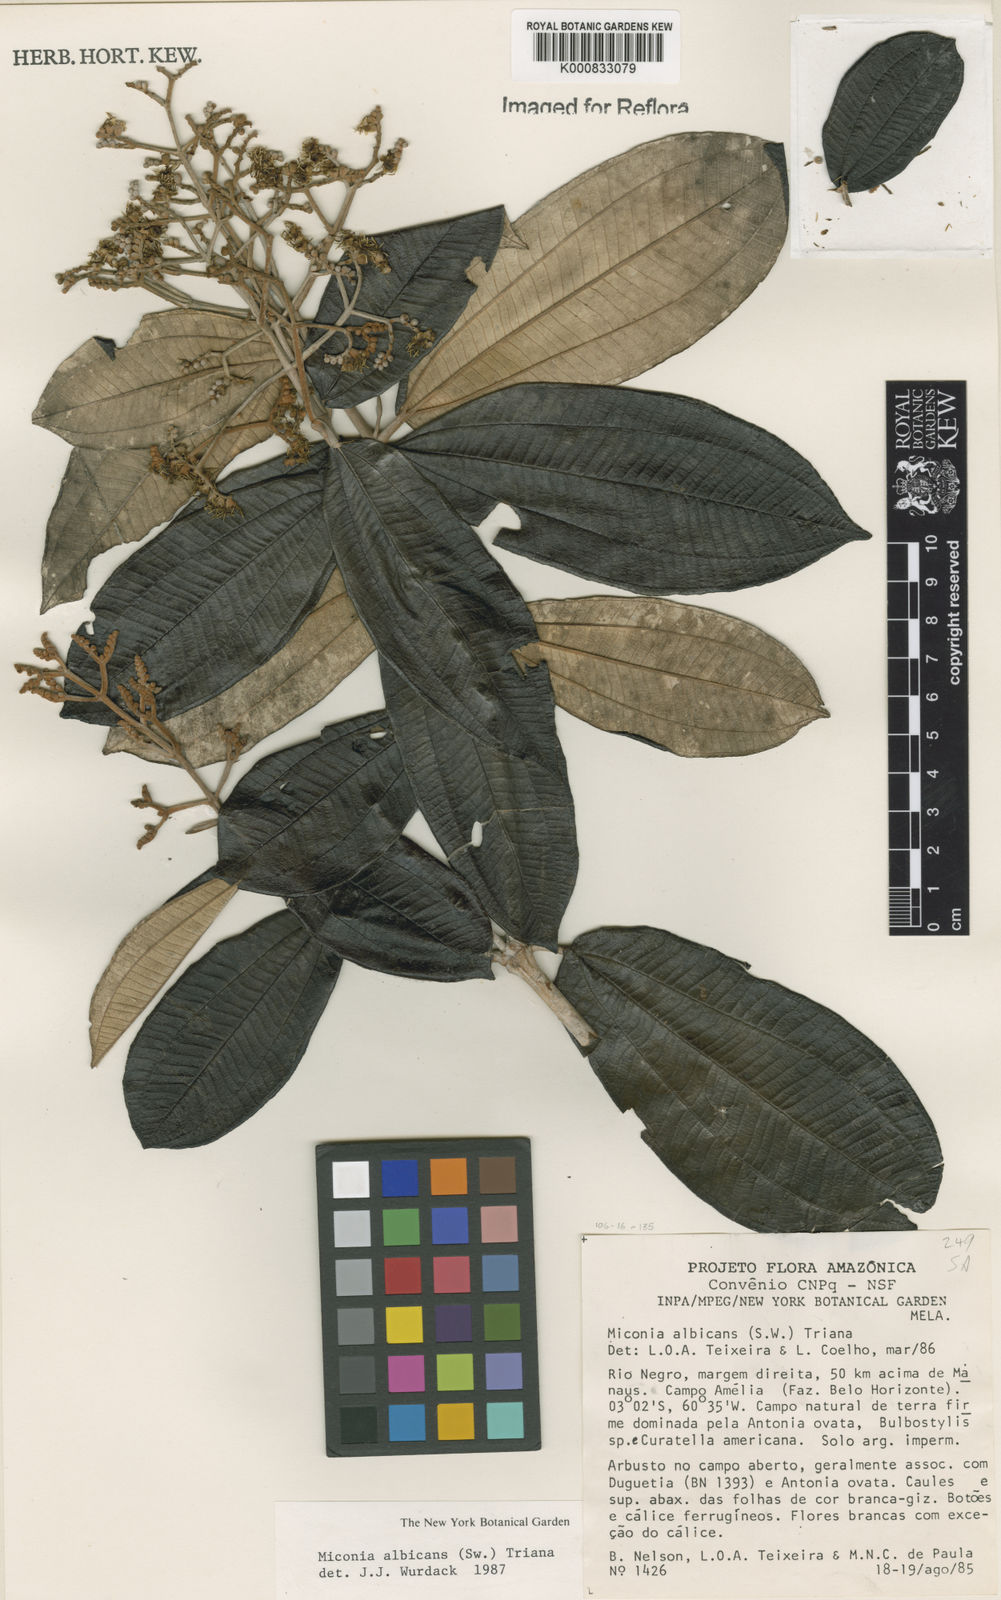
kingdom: Plantae
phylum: Tracheophyta
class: Magnoliopsida
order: Myrtales
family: Melastomataceae
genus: Miconia
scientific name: Miconia albicans
